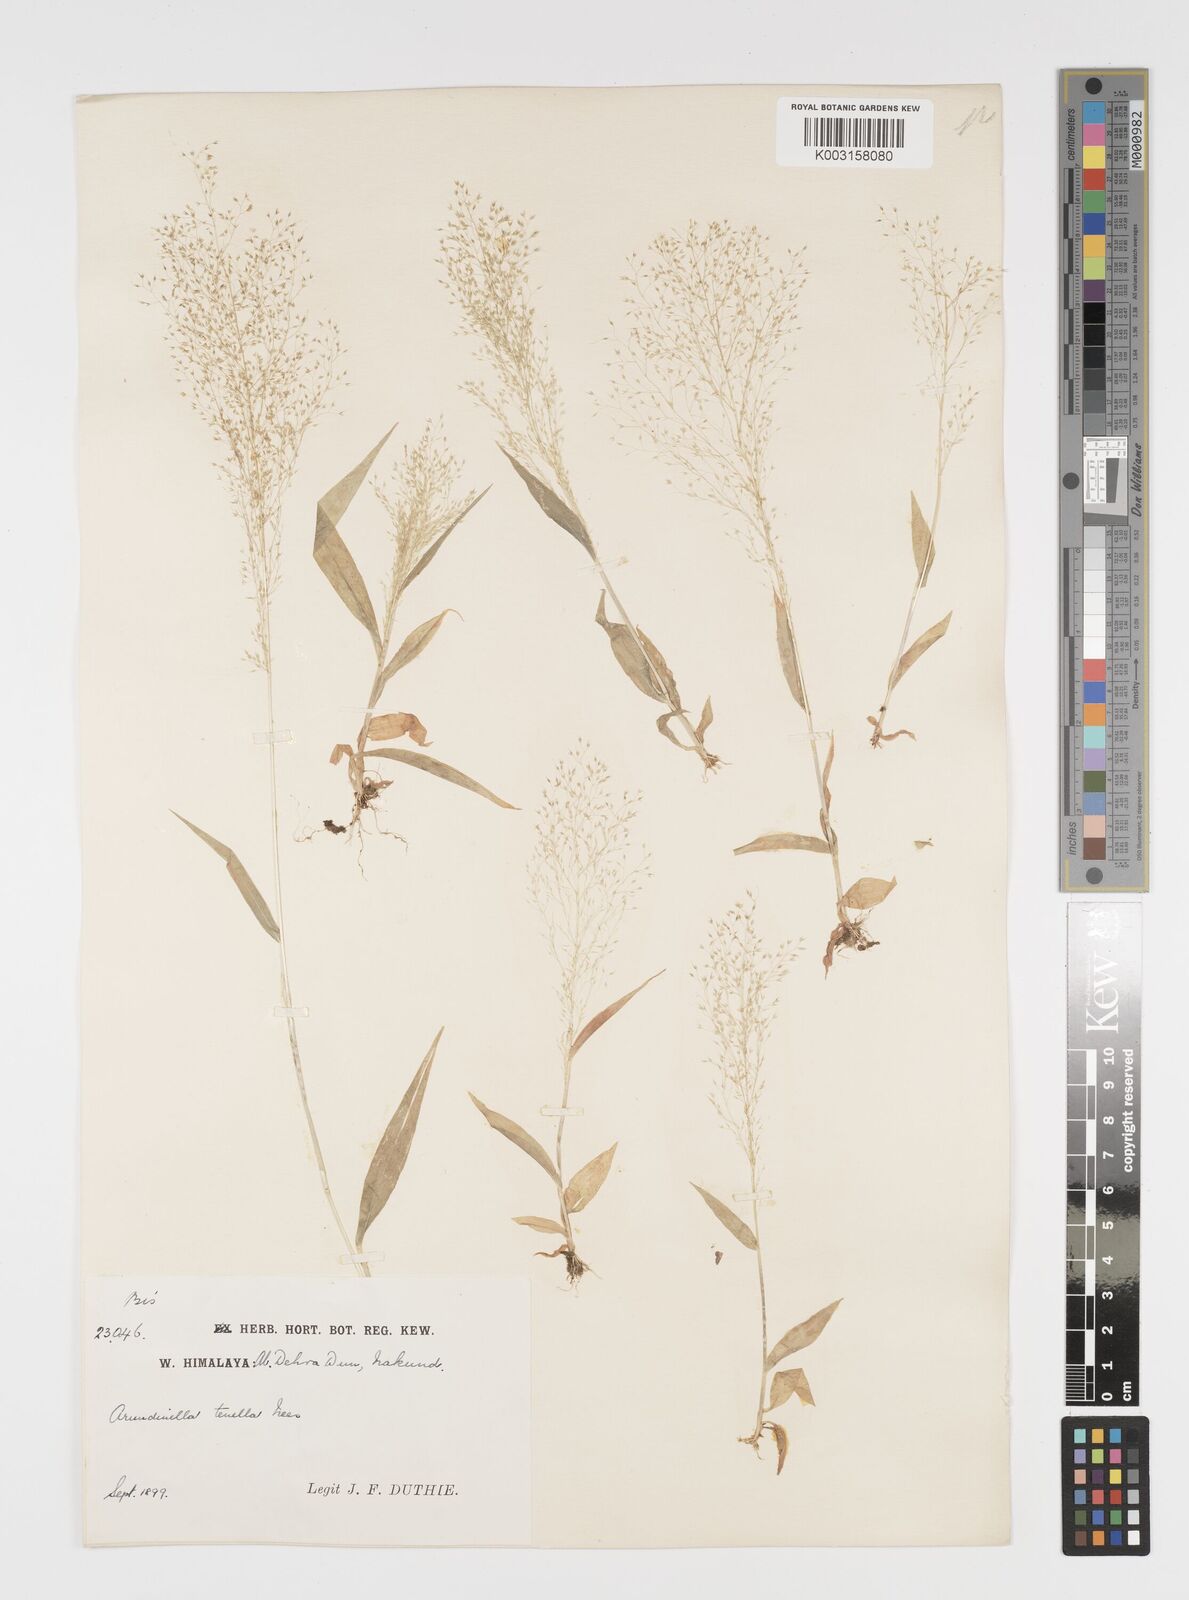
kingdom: Plantae
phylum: Tracheophyta
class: Liliopsida
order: Poales
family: Poaceae
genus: Arundinella
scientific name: Arundinella pumila
